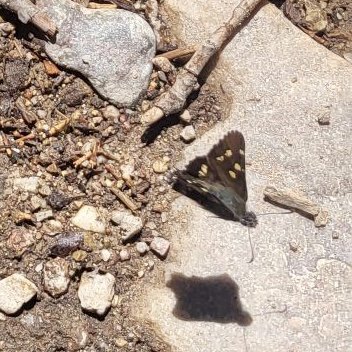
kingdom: Animalia
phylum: Arthropoda
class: Insecta
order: Lepidoptera
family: Hesperiidae
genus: Zestusa
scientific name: Zestusa dorus
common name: Short-tailed Skipper
